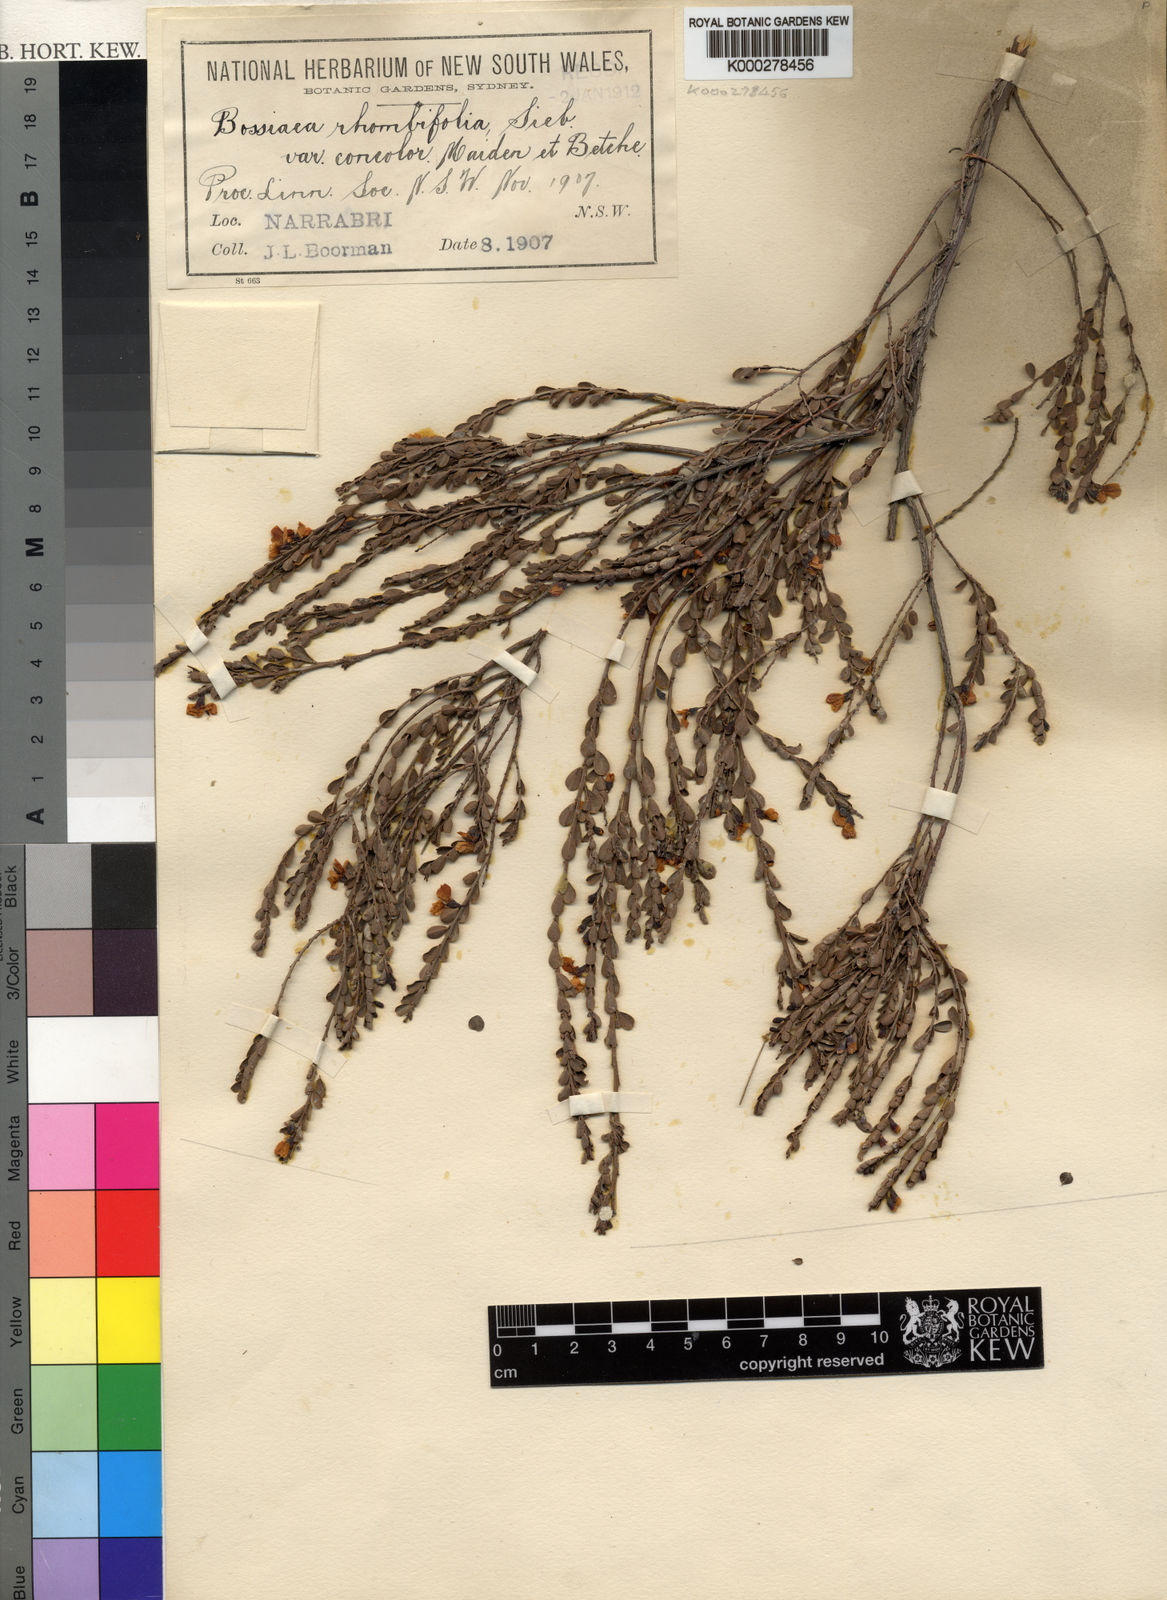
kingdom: Plantae
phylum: Tracheophyta
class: Magnoliopsida
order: Fabales
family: Fabaceae
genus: Bossiaea
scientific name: Bossiaea concolor
